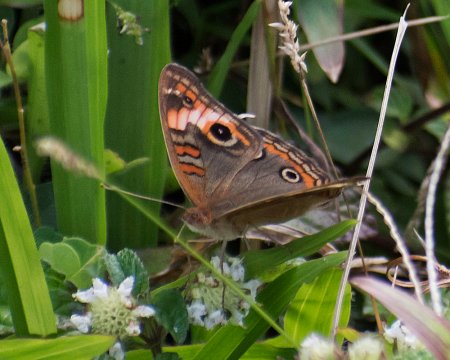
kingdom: Animalia
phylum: Arthropoda
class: Insecta
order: Lepidoptera
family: Nymphalidae
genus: Junonia
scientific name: Junonia lavinia
